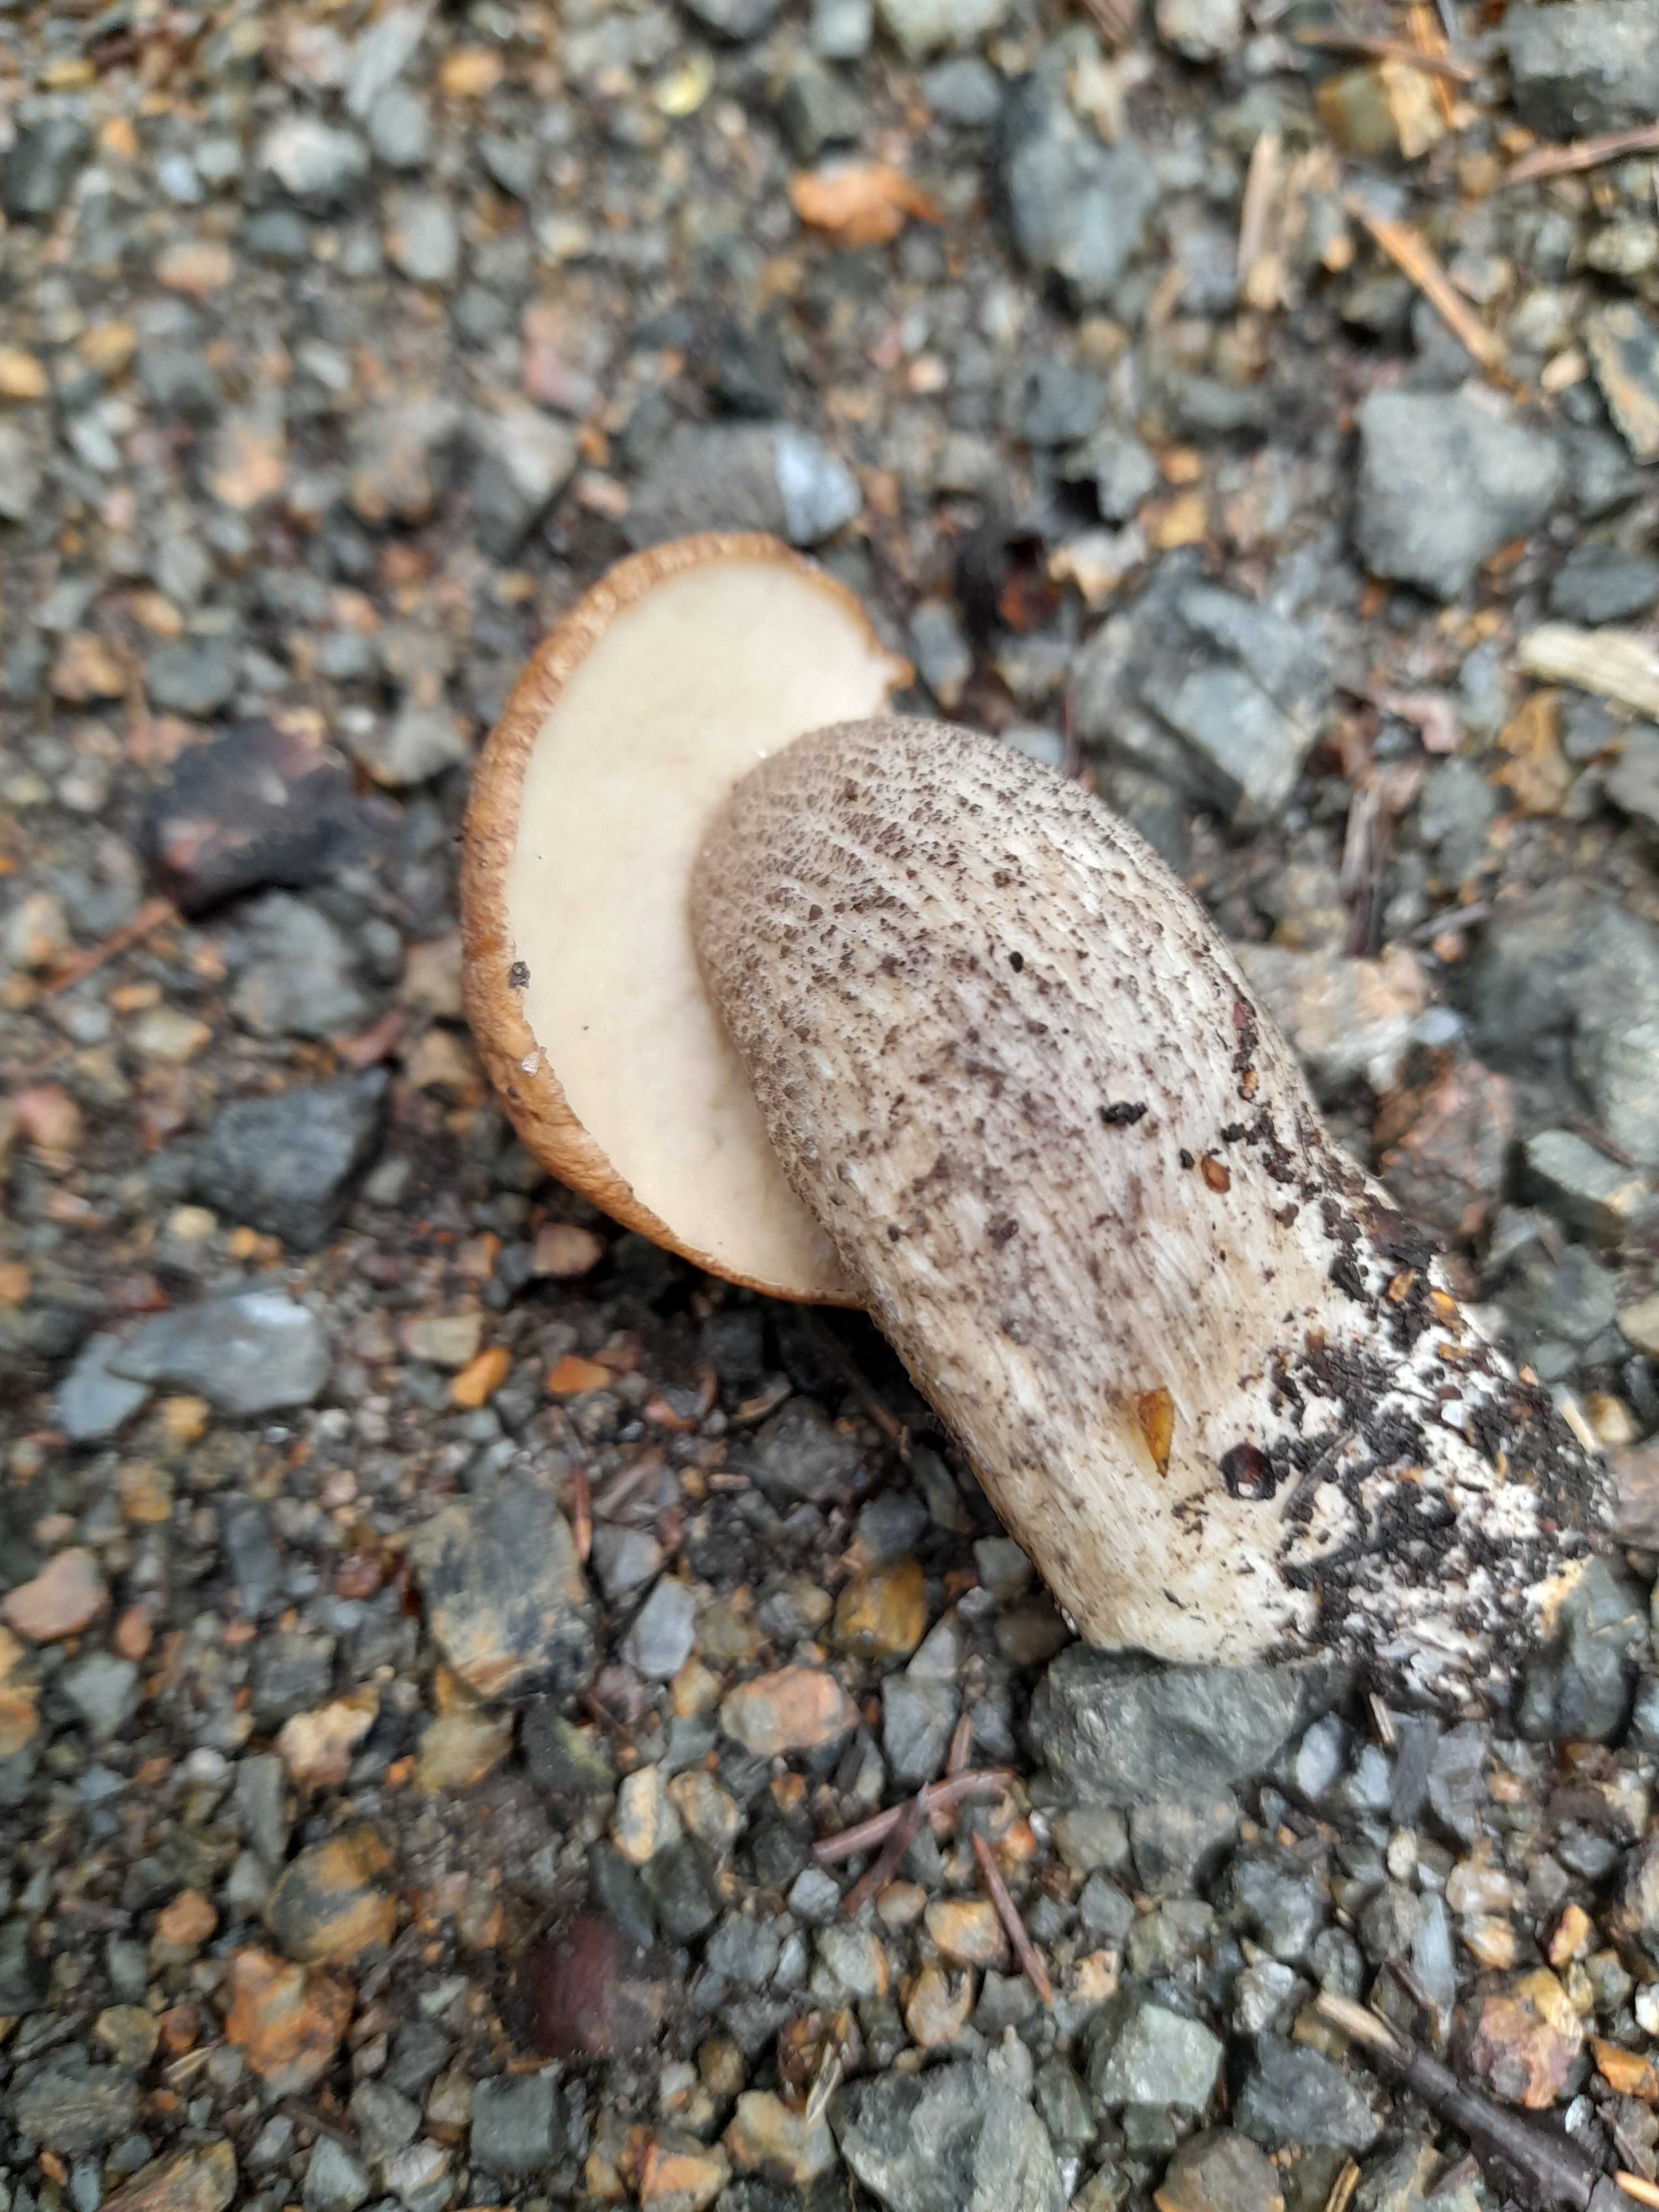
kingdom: Fungi
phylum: Basidiomycota
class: Agaricomycetes
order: Boletales
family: Boletaceae
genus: Leccinum
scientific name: Leccinum scabrum
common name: brun skælrørhat
